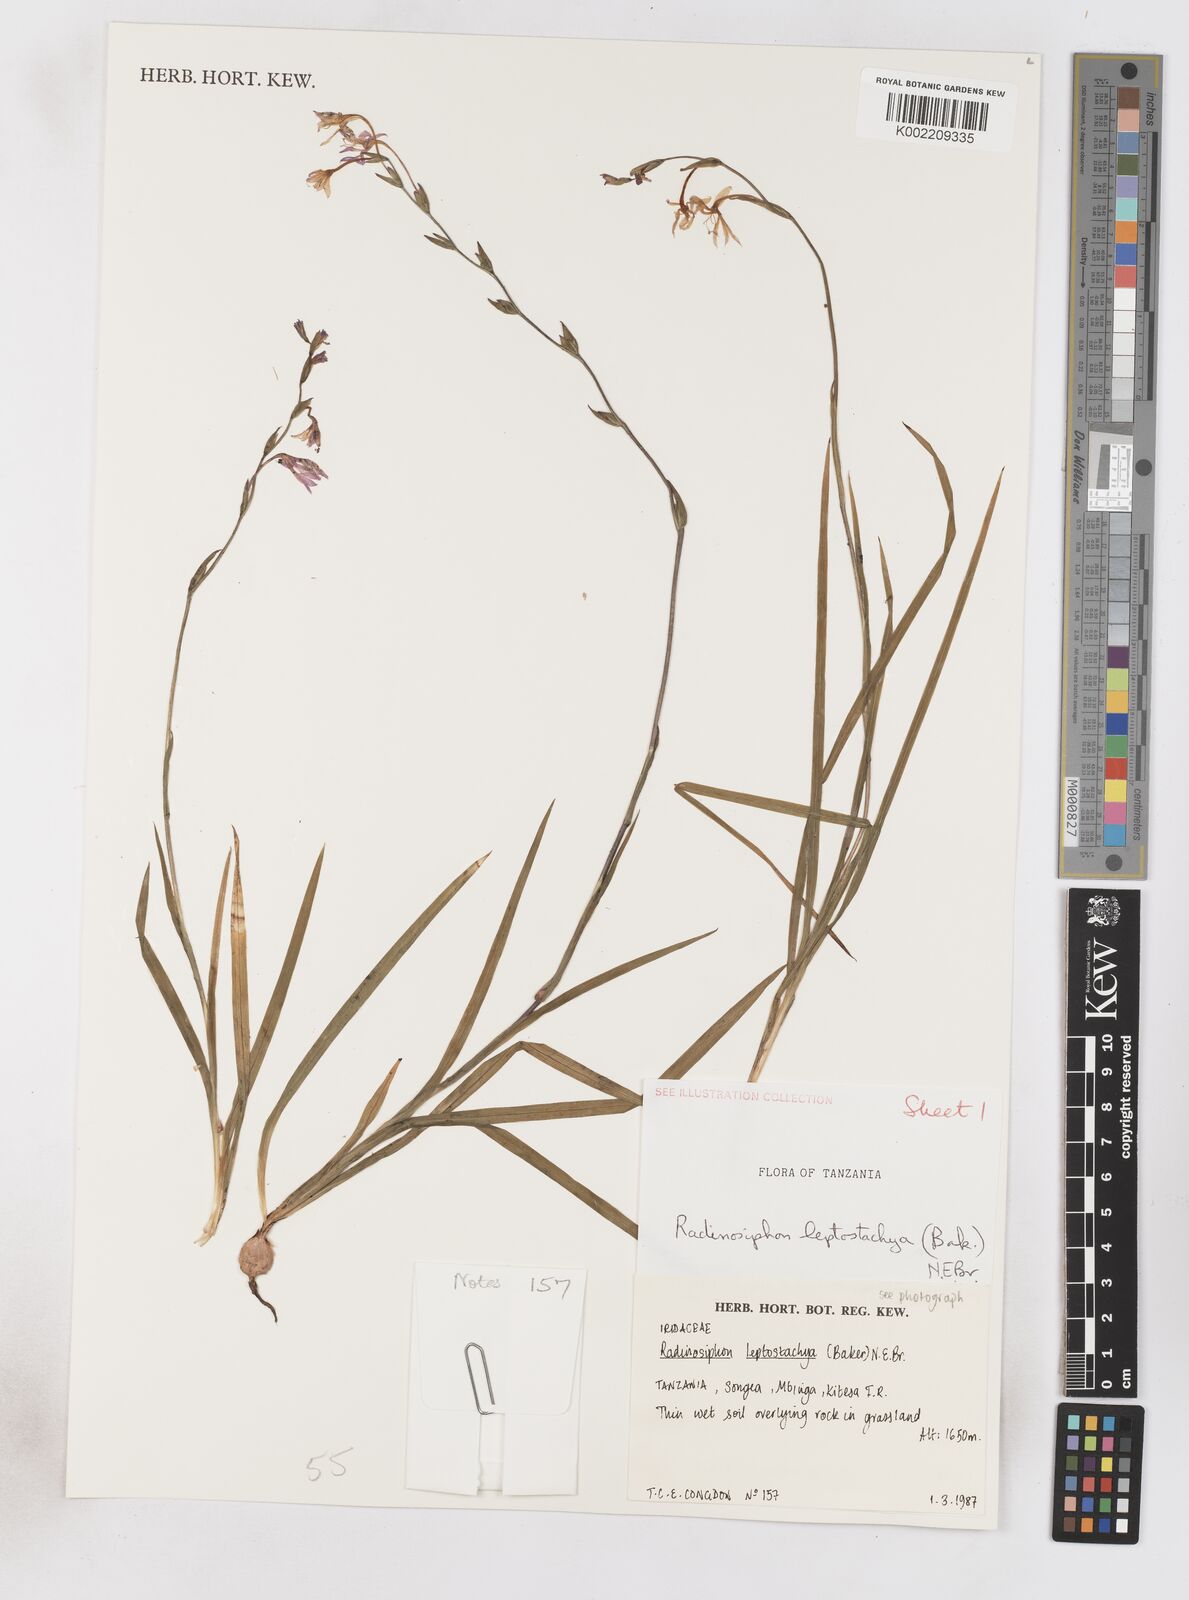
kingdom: Plantae
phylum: Tracheophyta
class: Liliopsida
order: Asparagales
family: Iridaceae
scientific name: Iridaceae
